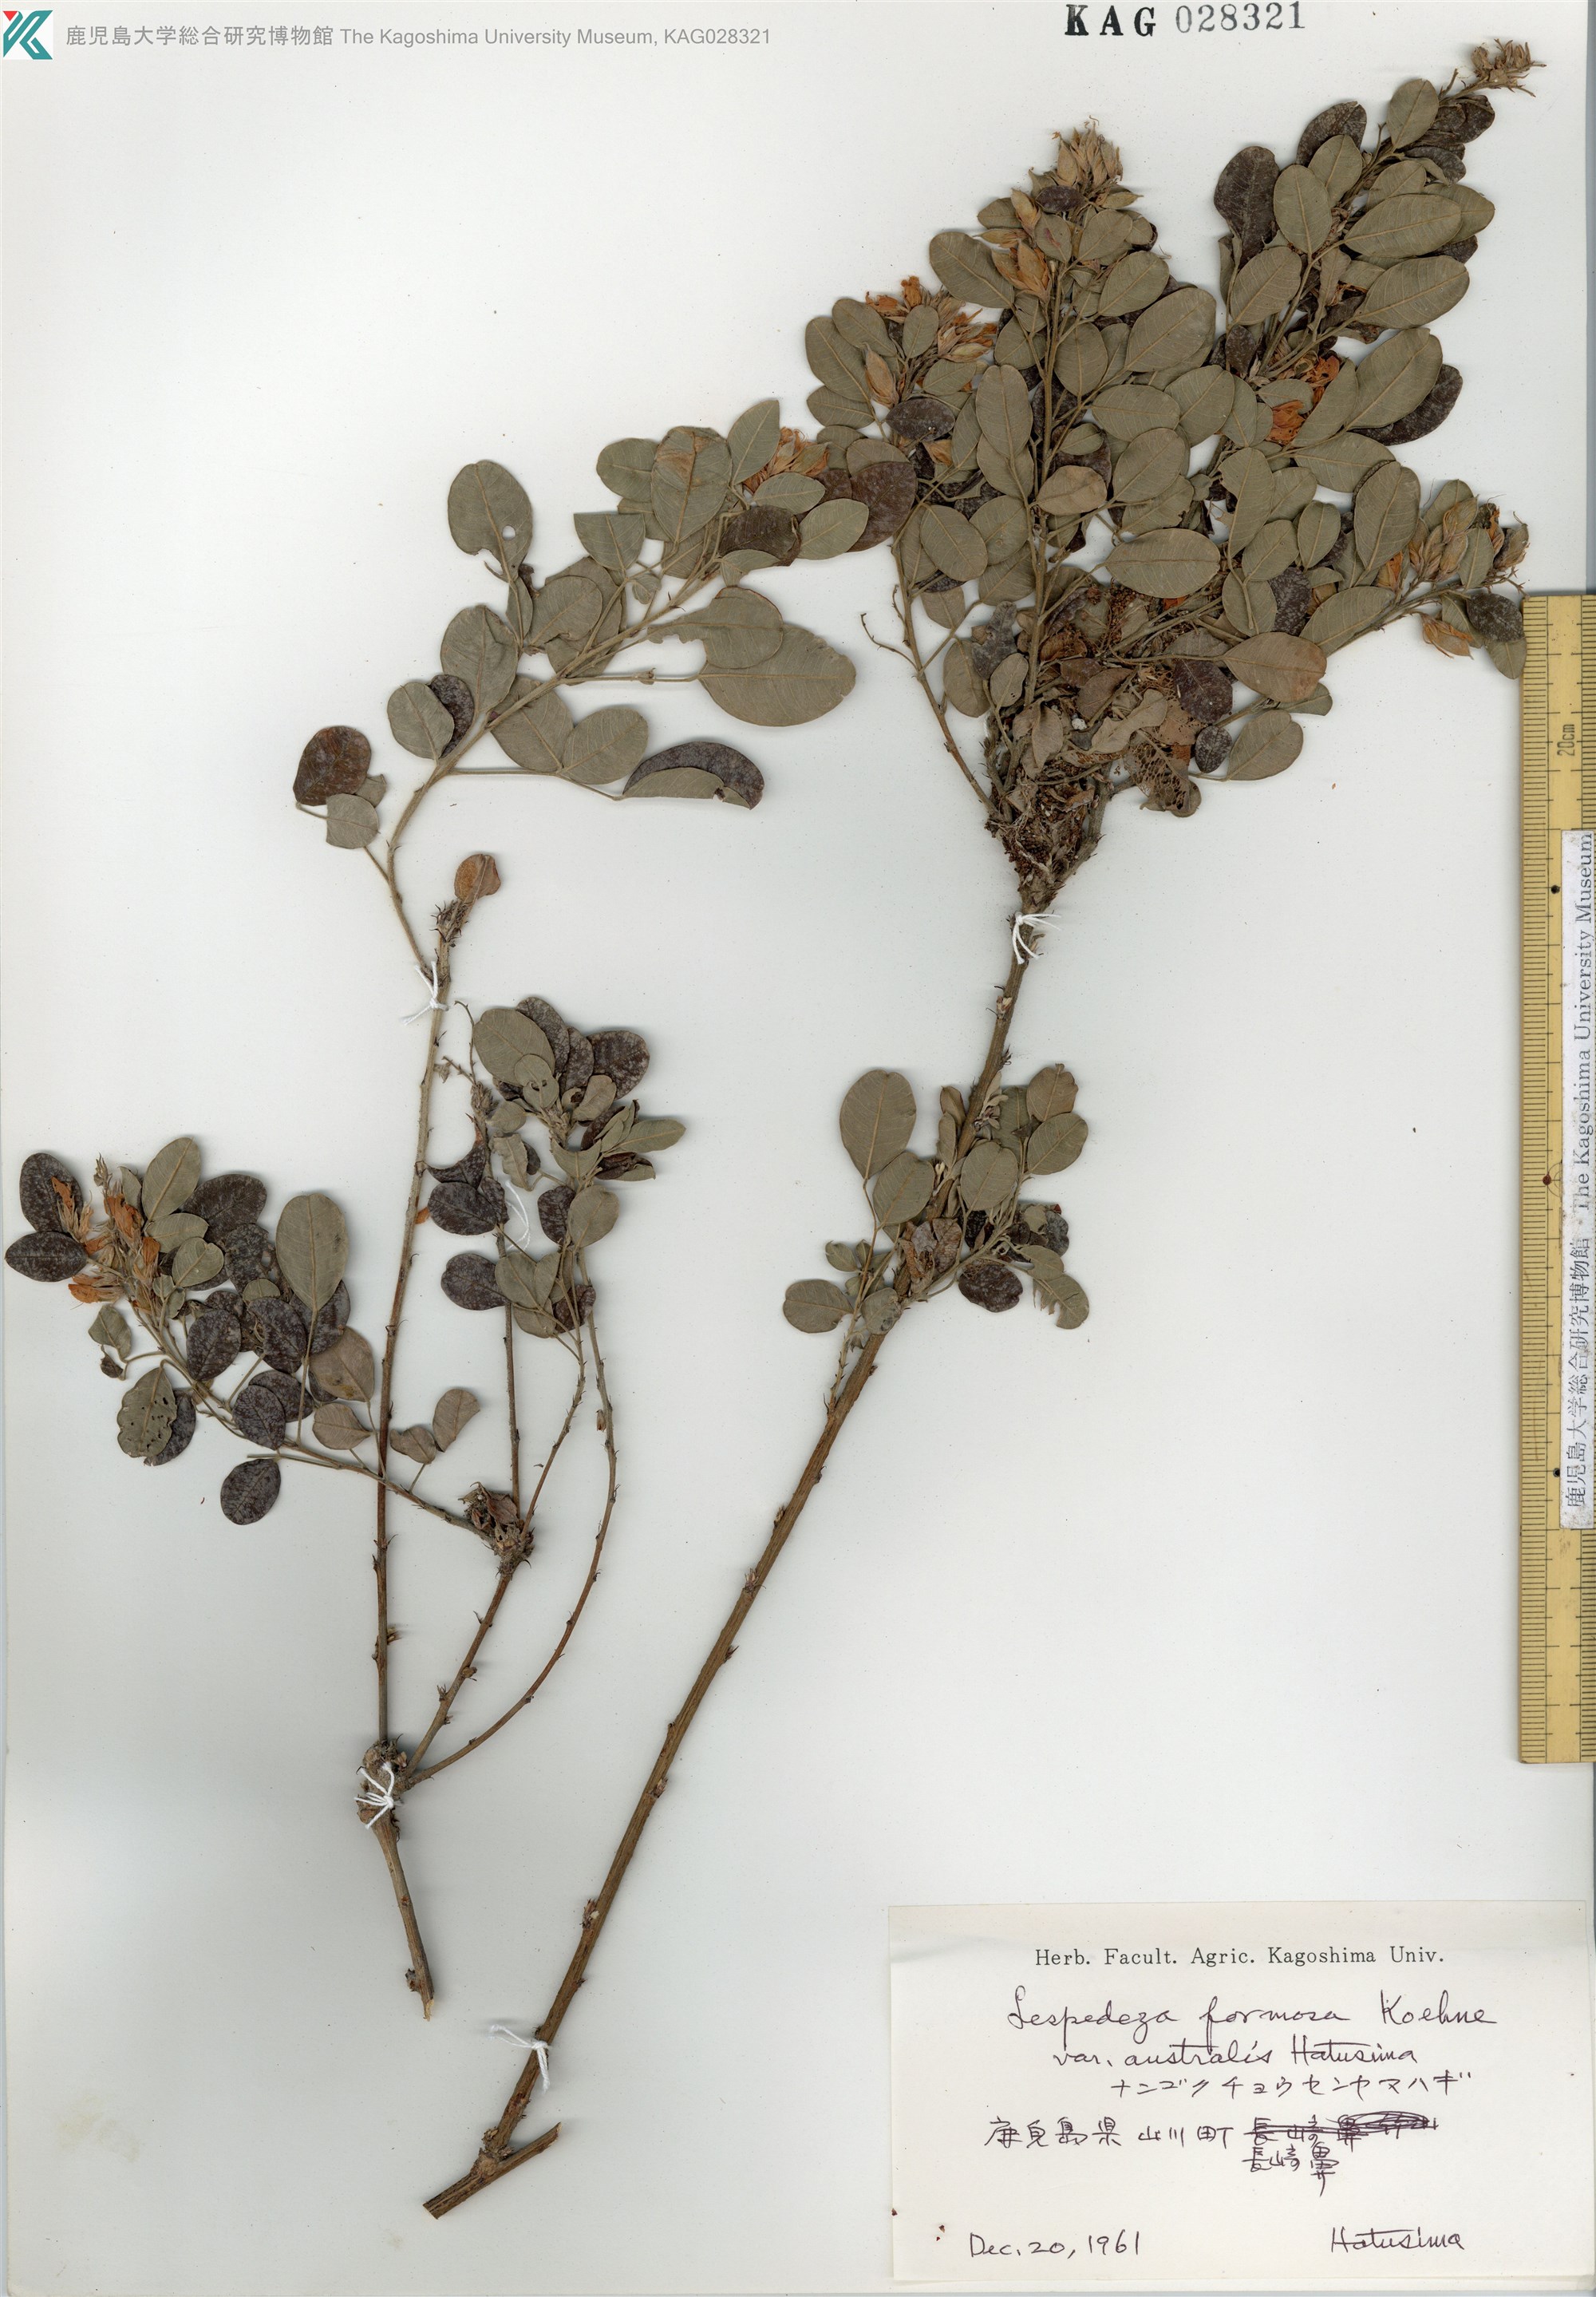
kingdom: Plantae
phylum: Tracheophyta
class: Magnoliopsida
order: Fabales
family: Fabaceae
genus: Lespedeza
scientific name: Lespedeza thunbergii
